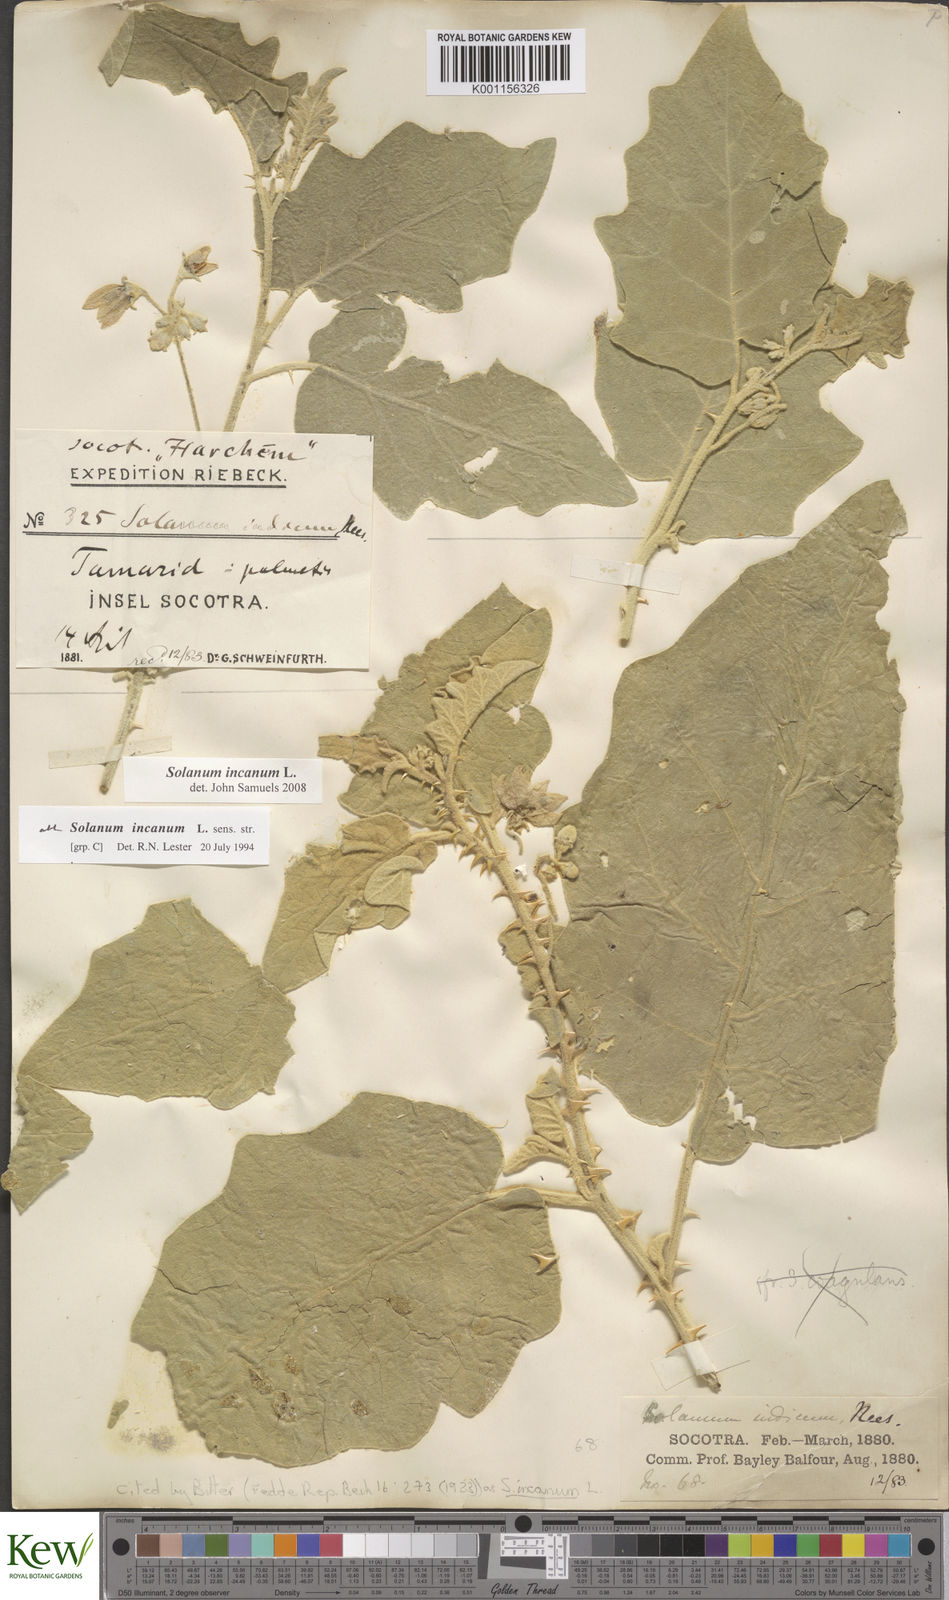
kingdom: Plantae
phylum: Tracheophyta
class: Magnoliopsida
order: Solanales
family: Solanaceae
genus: Solanum
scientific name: Solanum incanum
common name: Bitter apple
